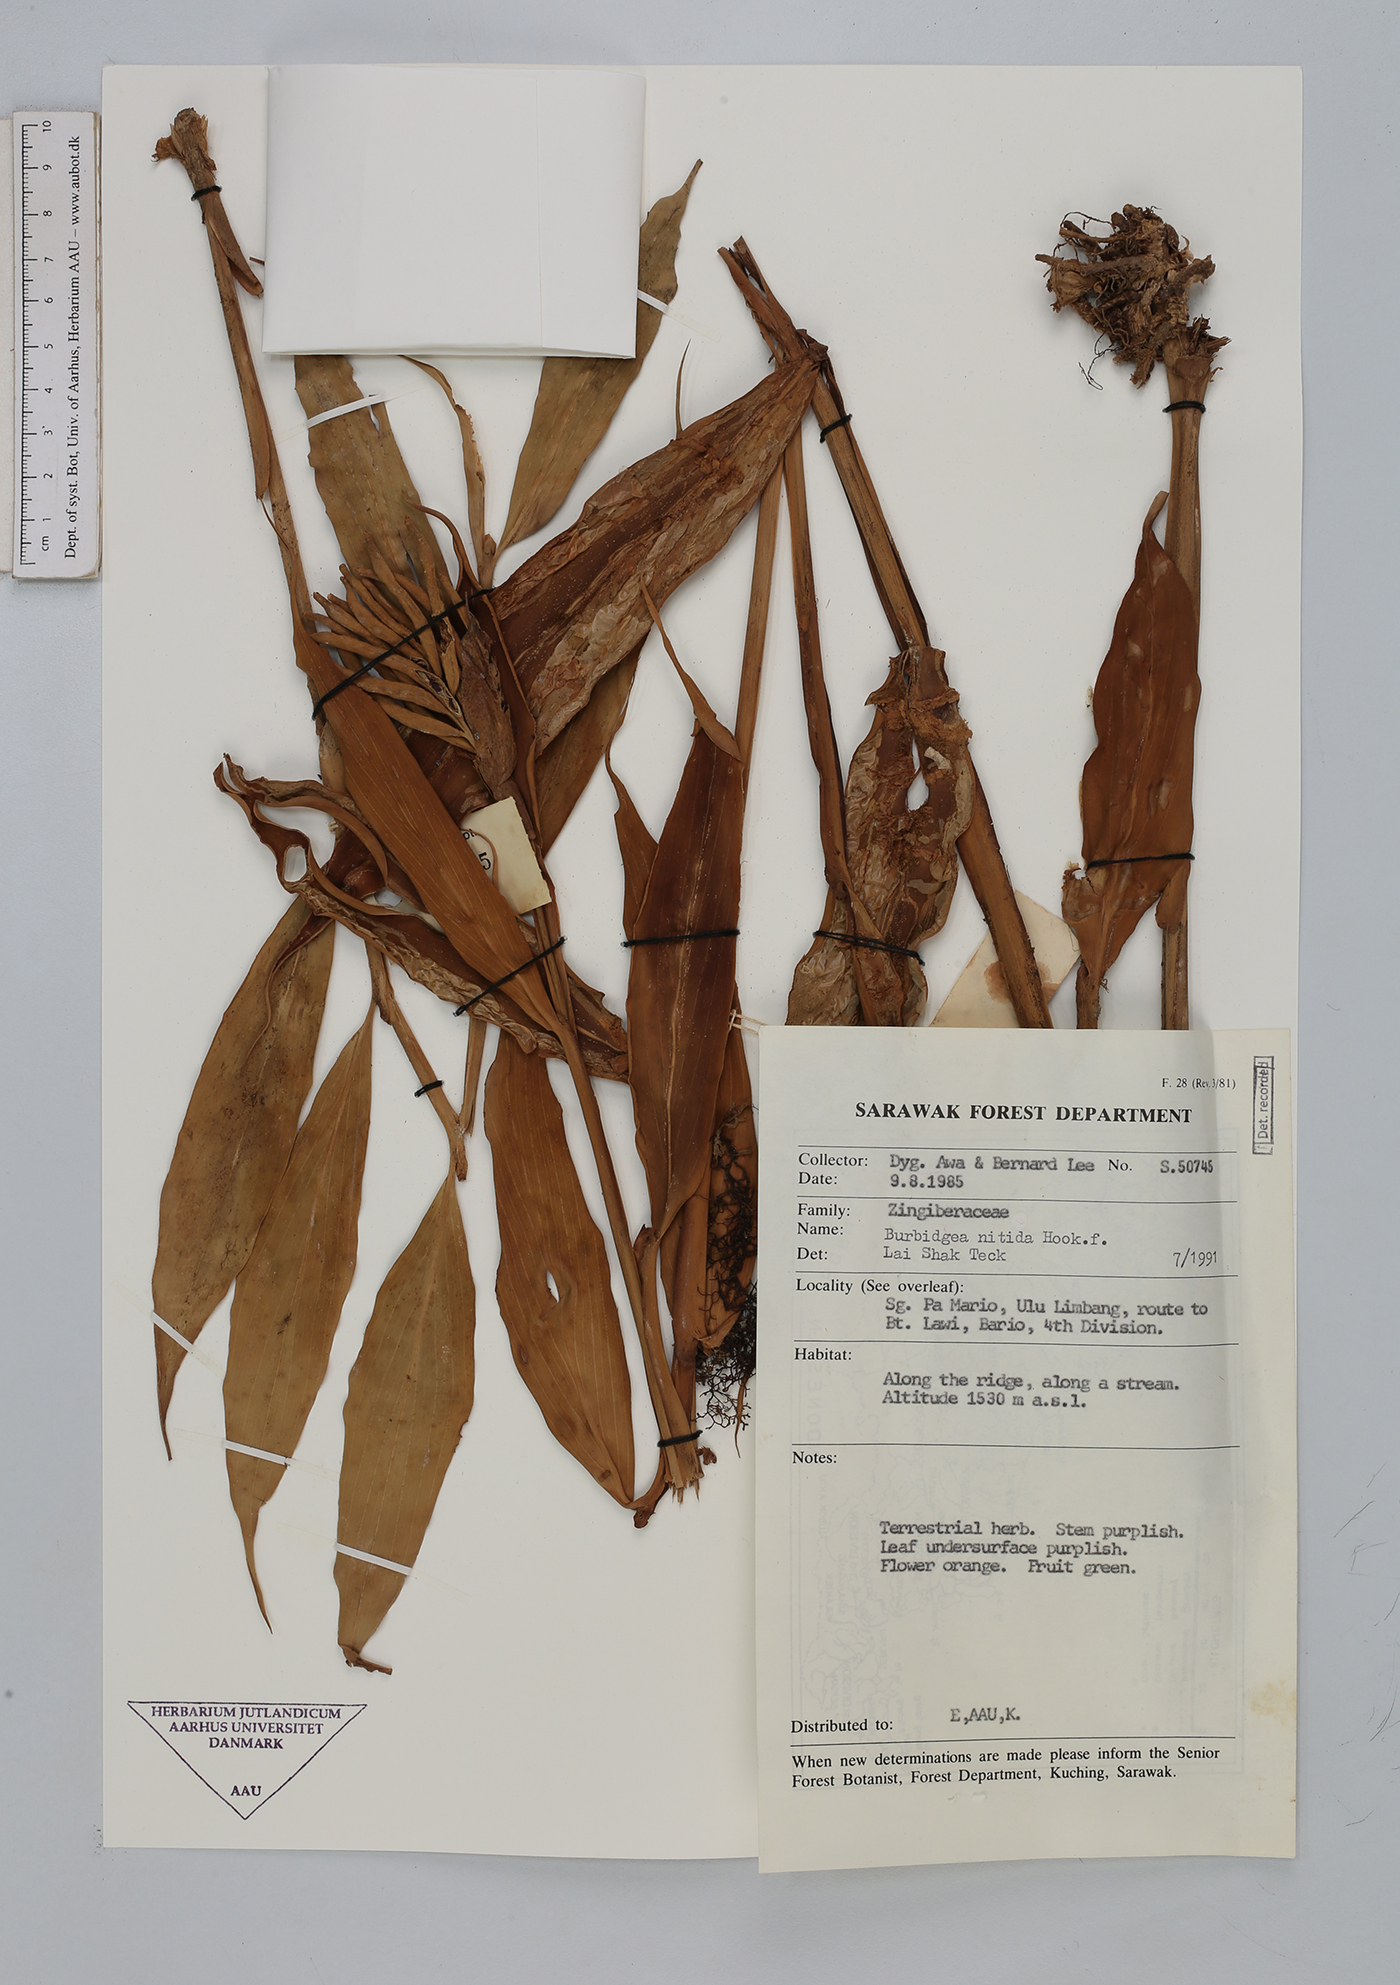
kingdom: Plantae
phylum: Tracheophyta
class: Liliopsida
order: Zingiberales
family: Zingiberaceae
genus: Burbidgea
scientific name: Burbidgea nitida
